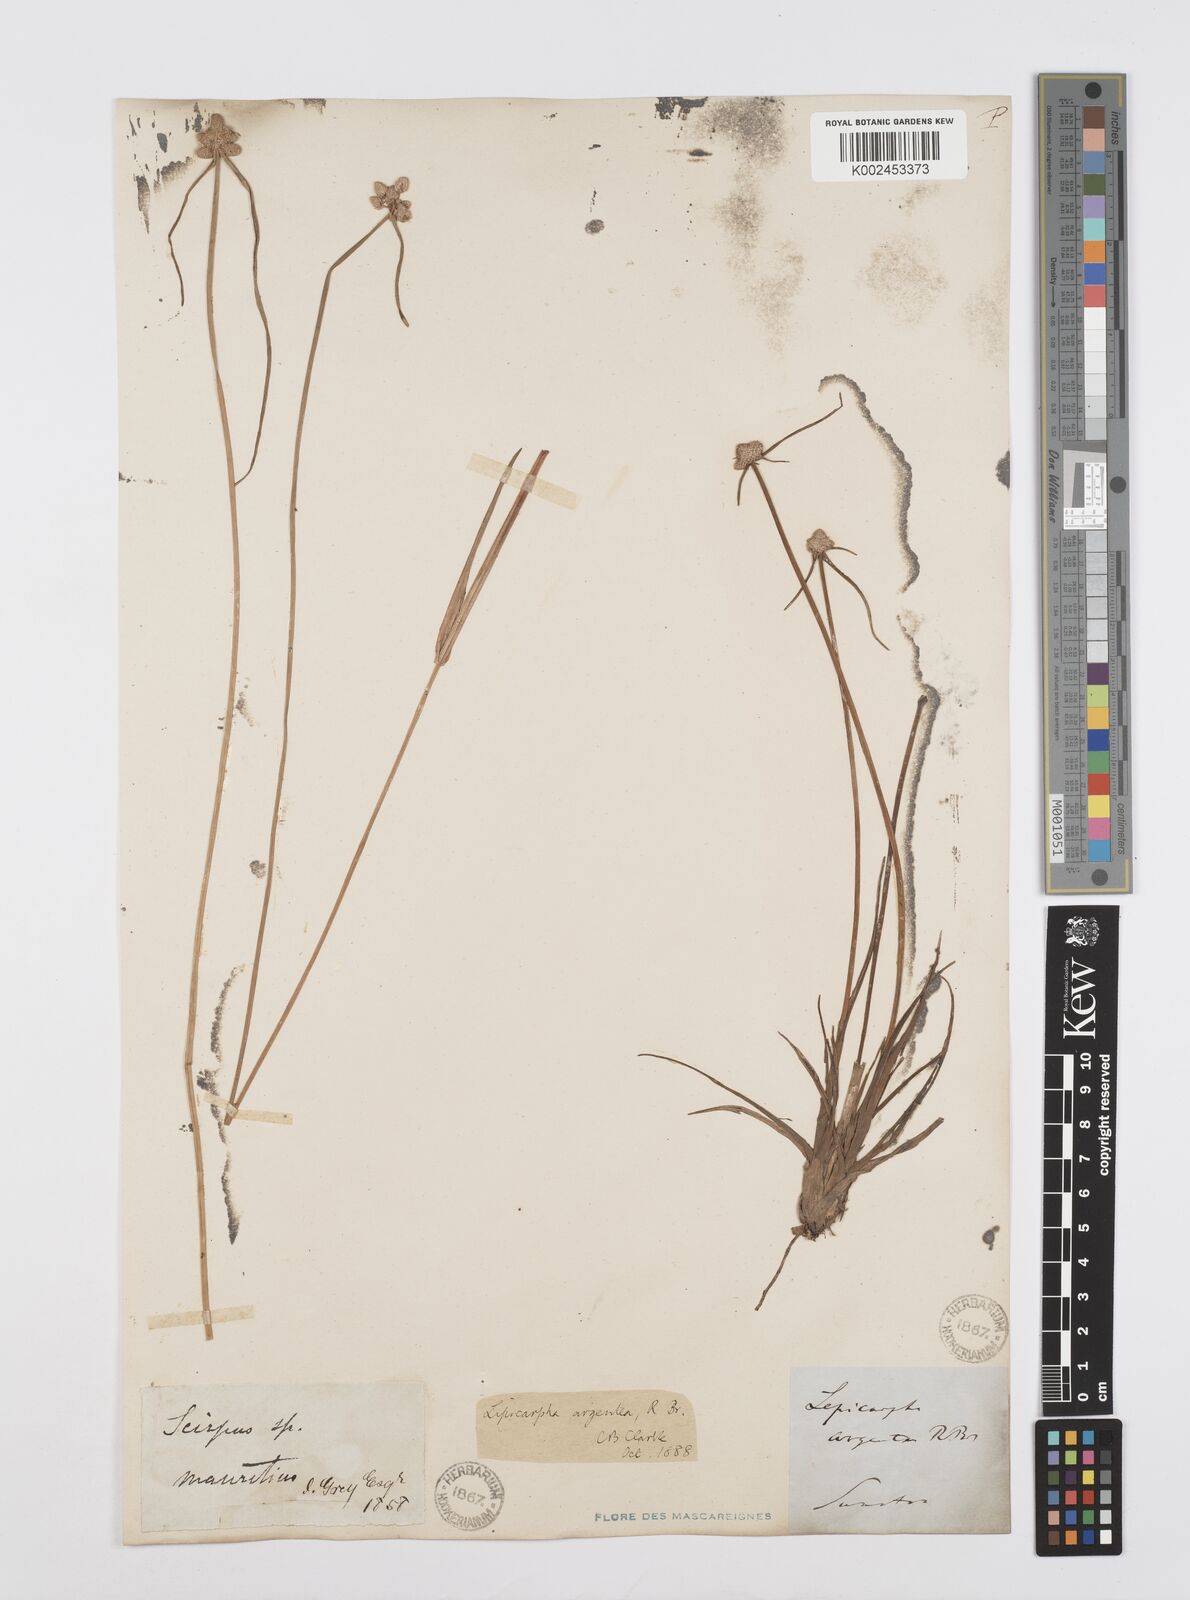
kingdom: Plantae
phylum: Tracheophyta
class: Liliopsida
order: Poales
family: Cyperaceae
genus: Cyperus
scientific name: Cyperus
